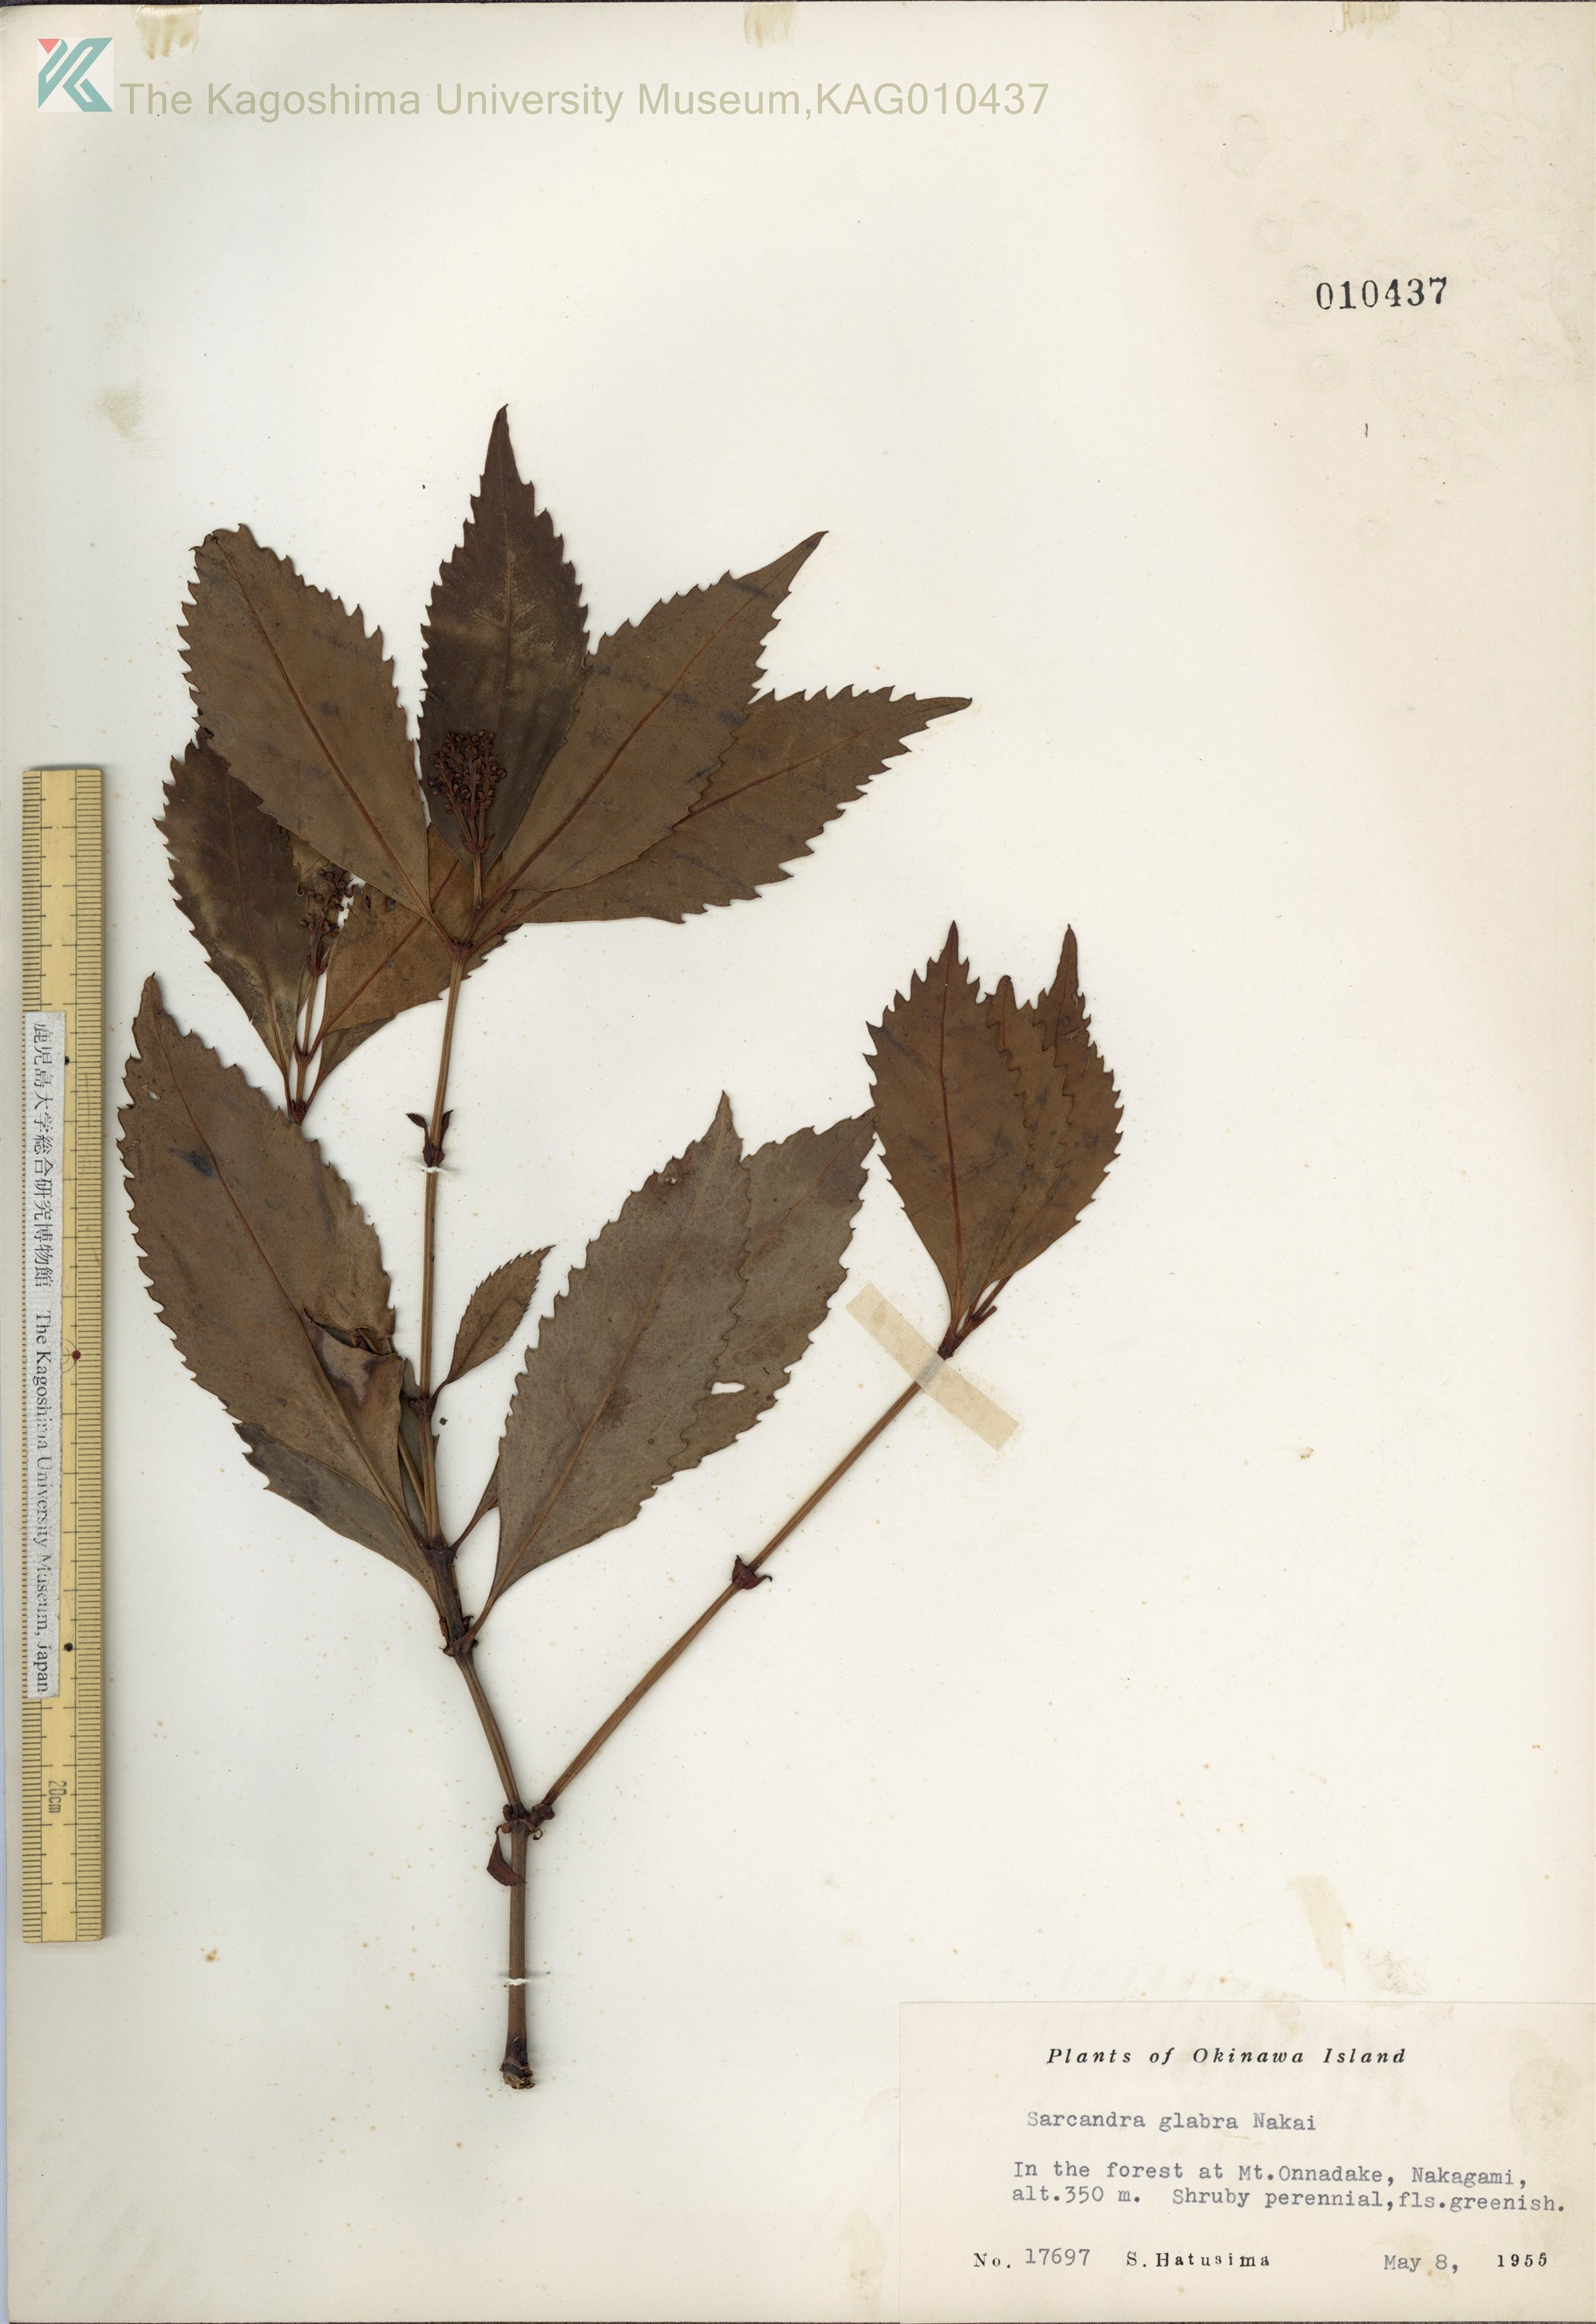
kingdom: Plantae
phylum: Tracheophyta
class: Magnoliopsida
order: Chloranthales
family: Chloranthaceae
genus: Sarcandra
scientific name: Sarcandra glabra
